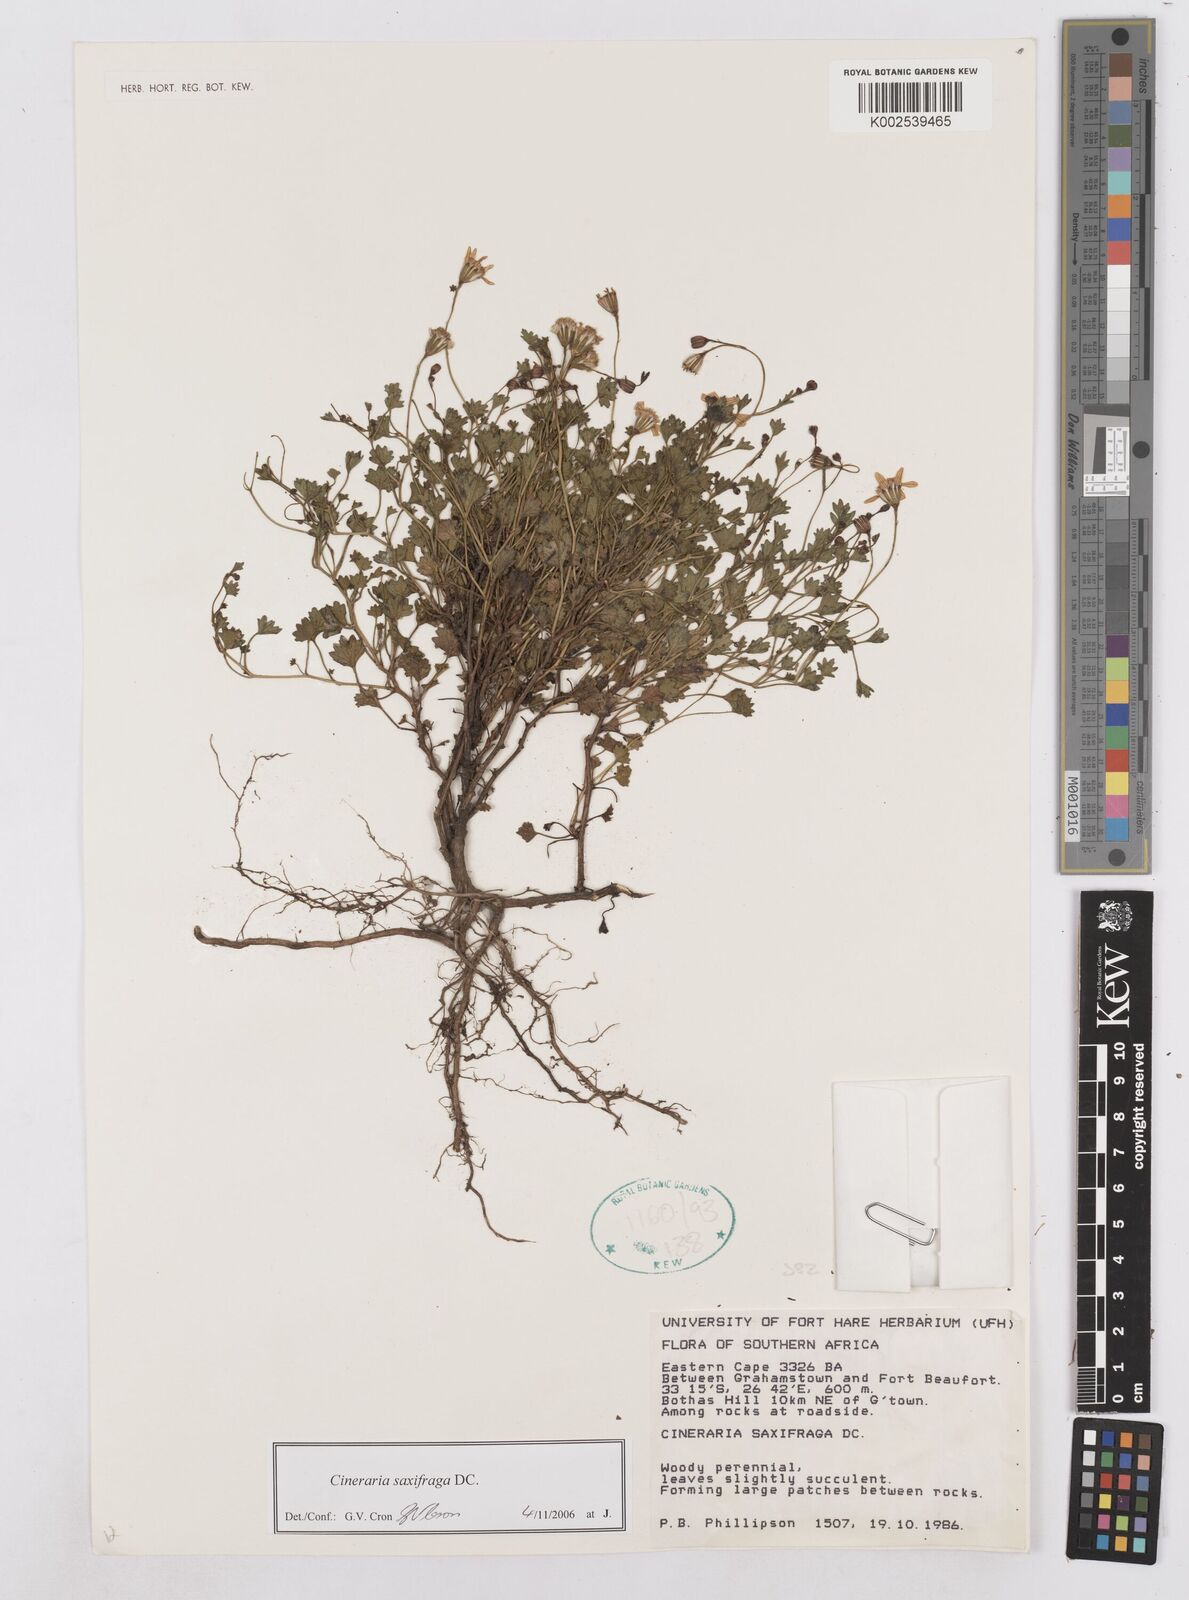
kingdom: Plantae
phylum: Tracheophyta
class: Magnoliopsida
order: Asterales
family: Asteraceae
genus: Cineraria
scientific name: Cineraria saxifraga
